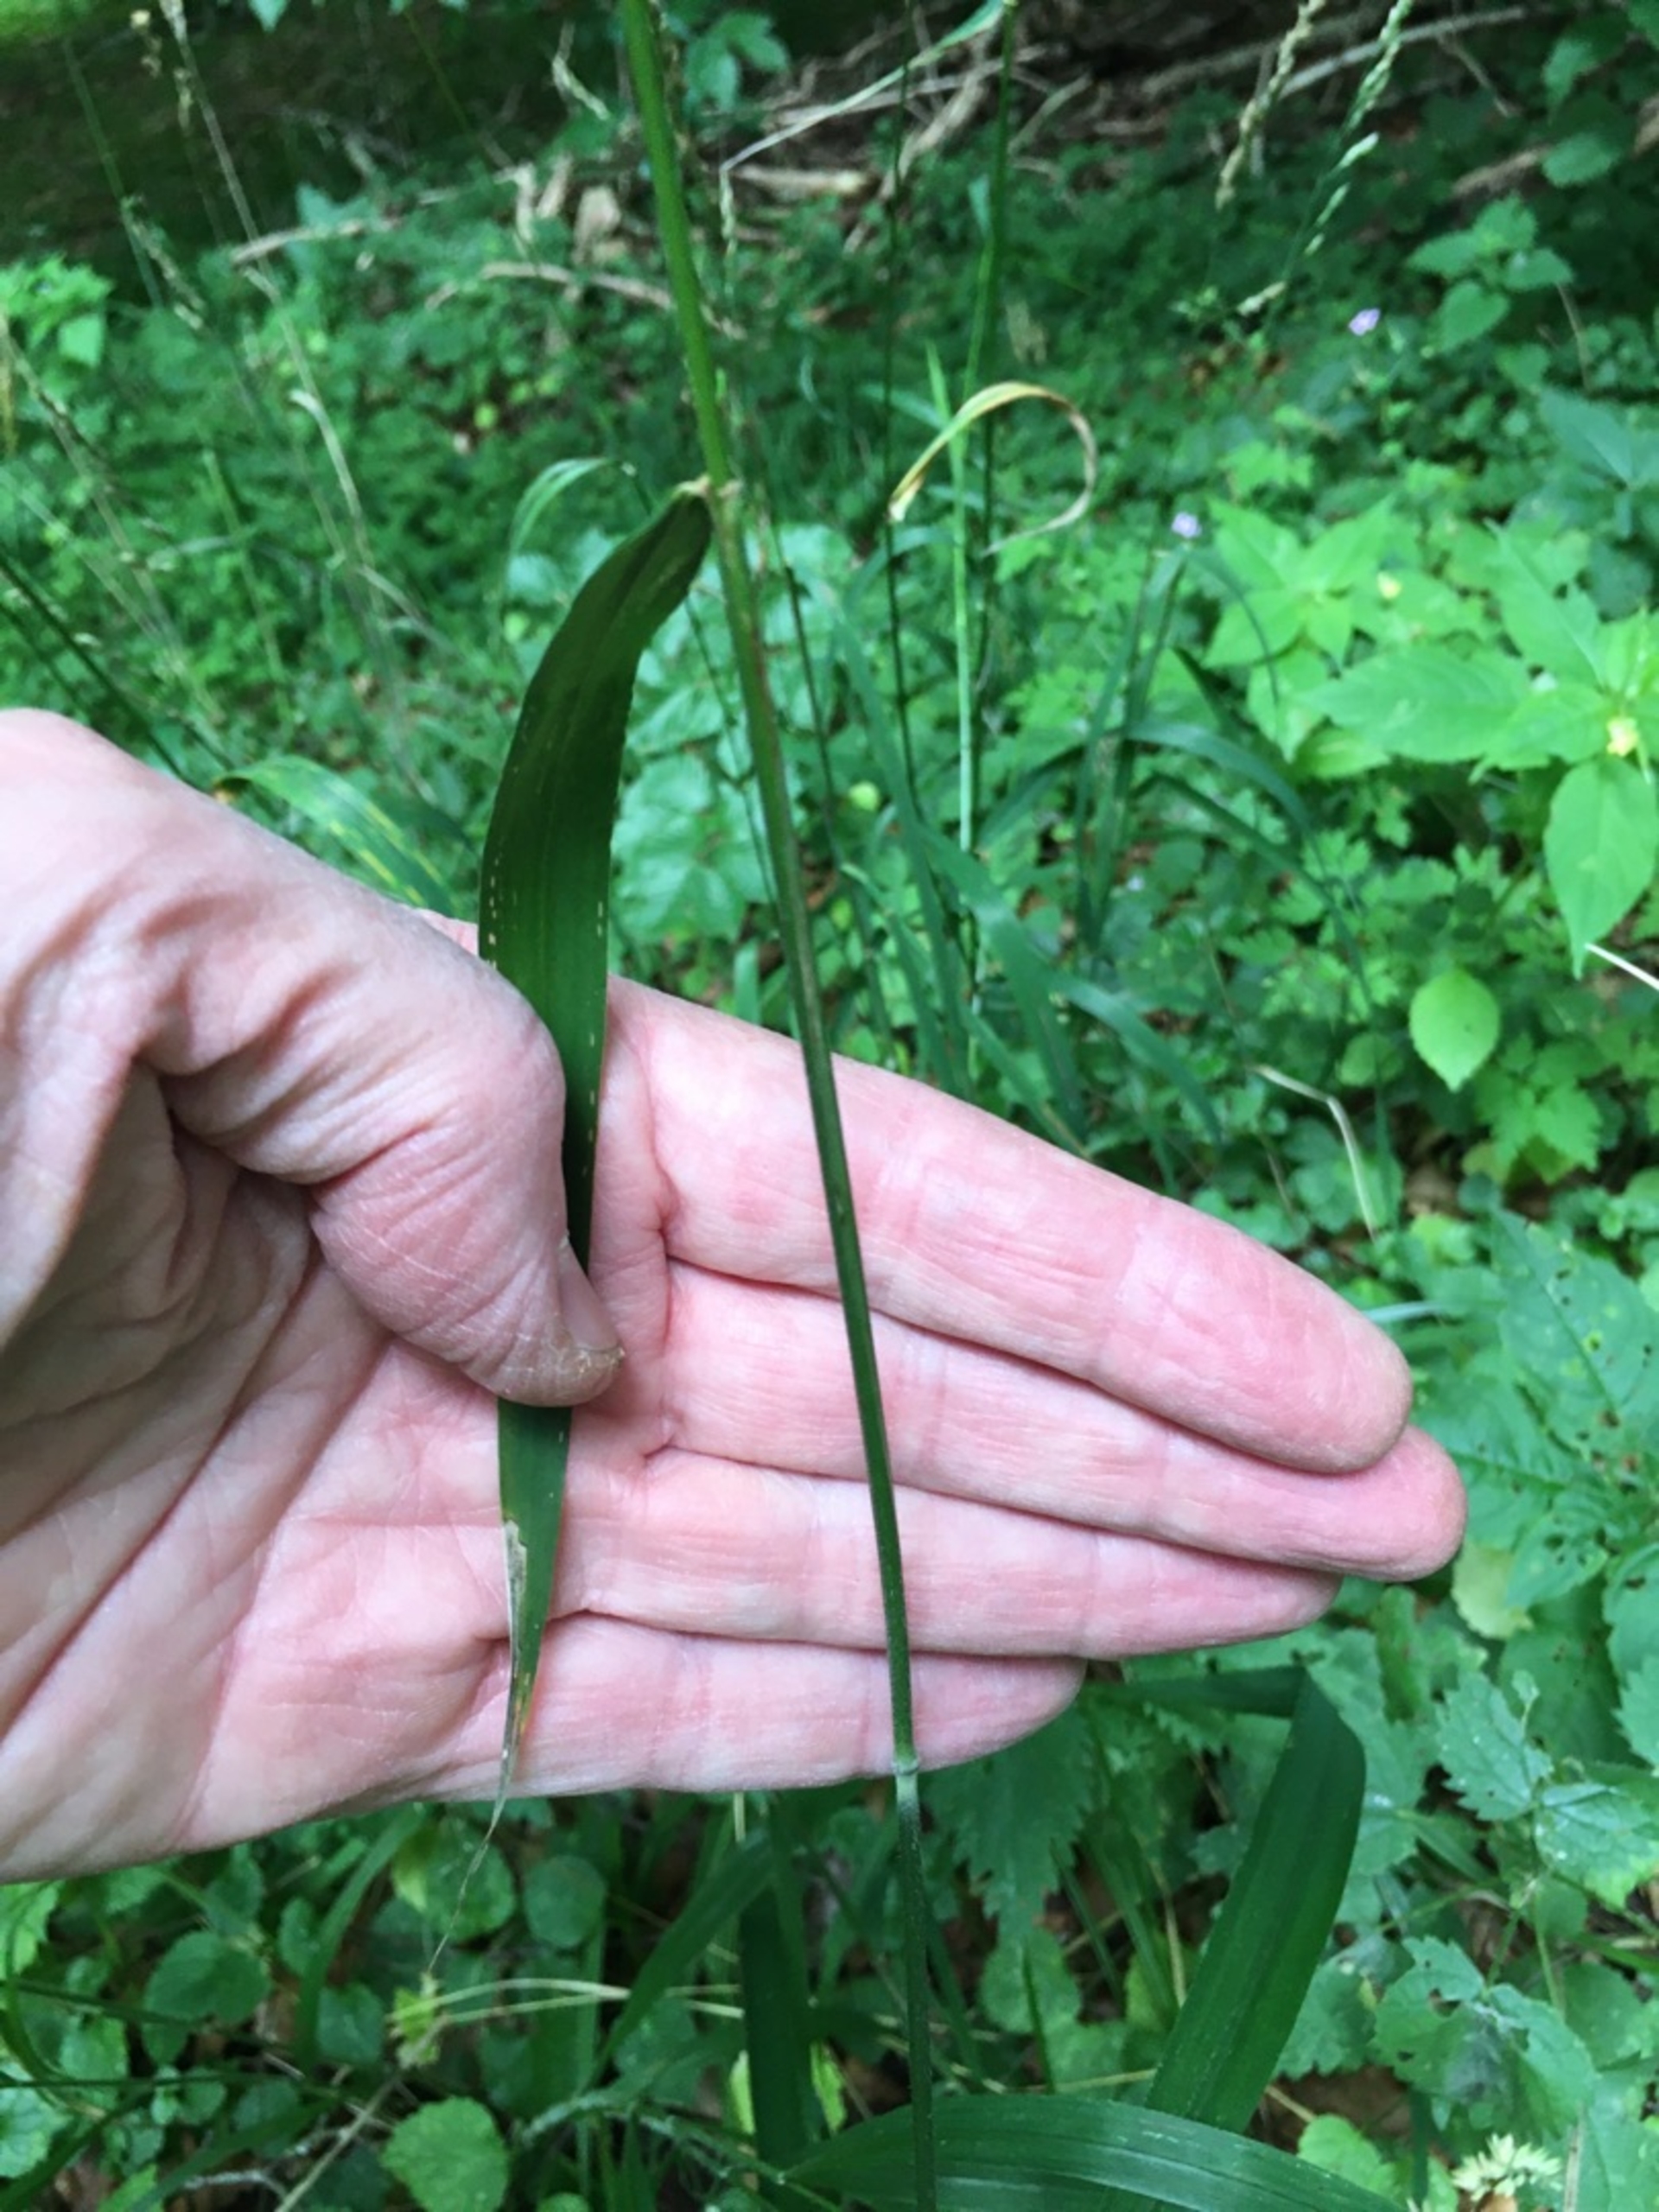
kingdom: Plantae
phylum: Tracheophyta
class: Liliopsida
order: Poales
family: Poaceae
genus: Hordelymus
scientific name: Hordelymus europaeus
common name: Skovbyg
